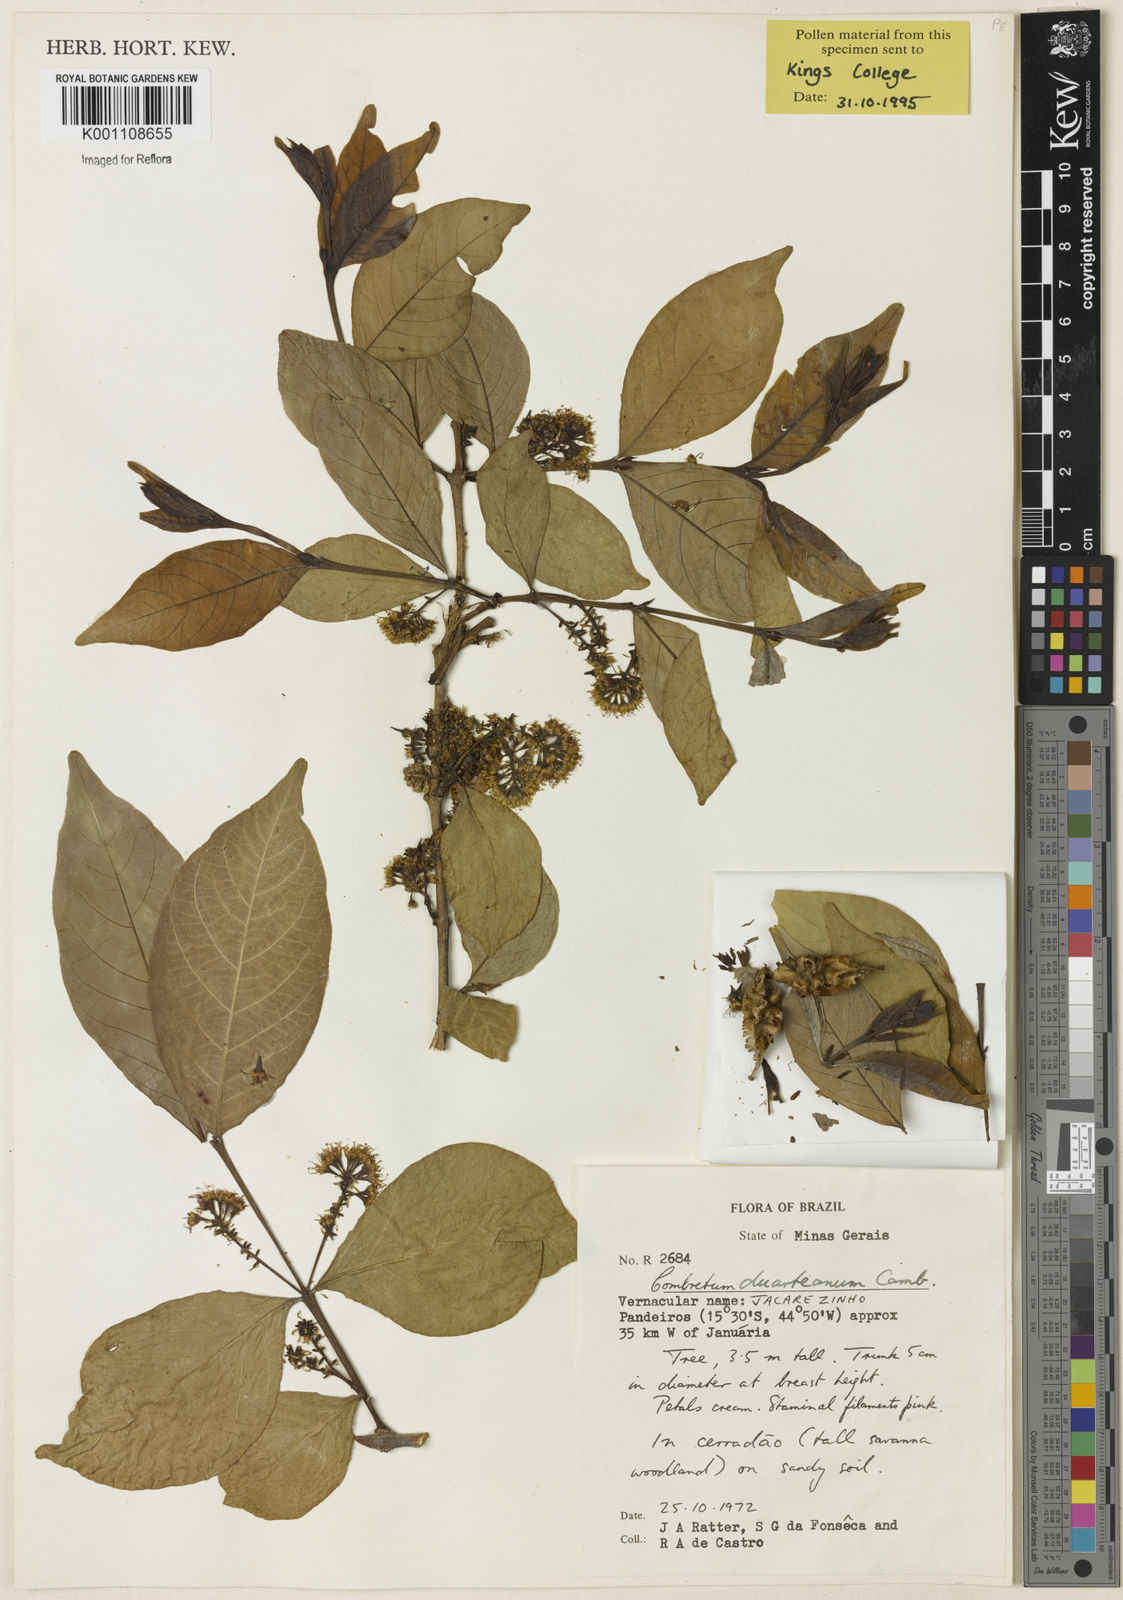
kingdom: Plantae
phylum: Tracheophyta
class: Magnoliopsida
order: Myrtales
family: Combretaceae
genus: Combretum
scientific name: Combretum duarteanum
